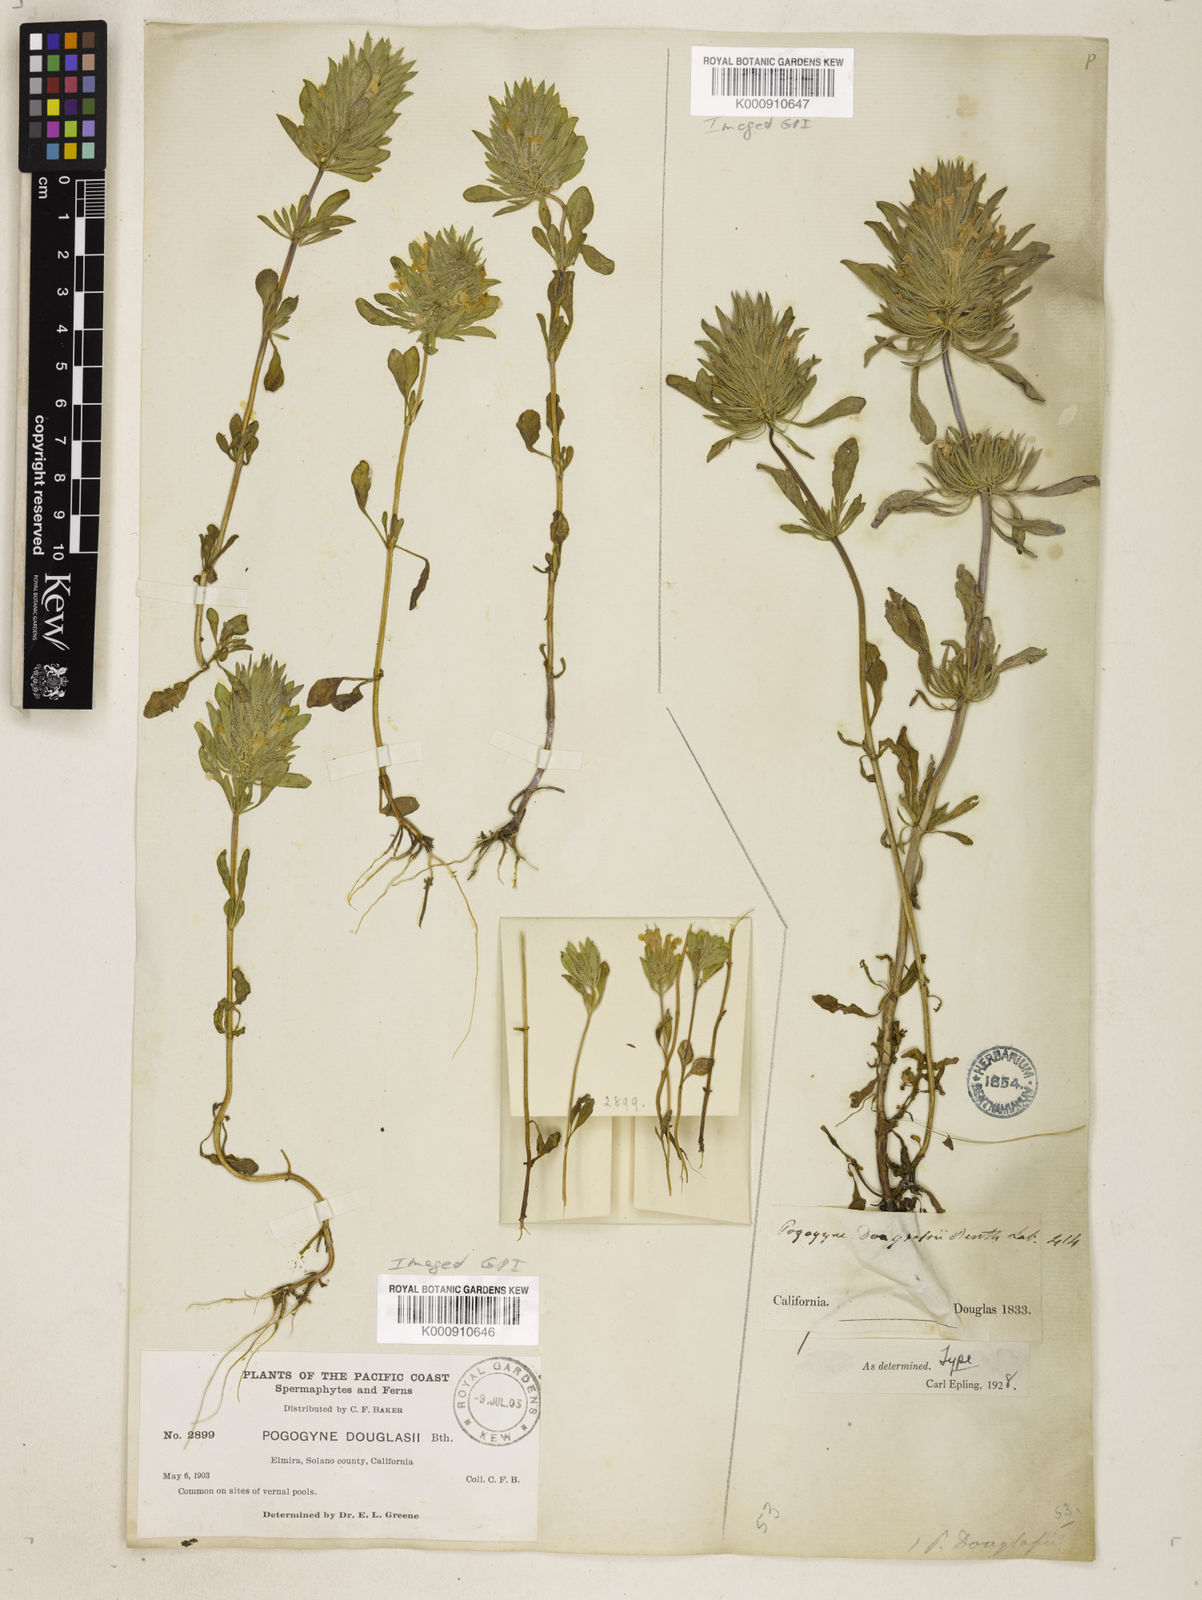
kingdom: Plantae
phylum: Tracheophyta
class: Magnoliopsida
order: Lamiales
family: Lamiaceae
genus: Pogogyne
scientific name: Pogogyne douglasii
